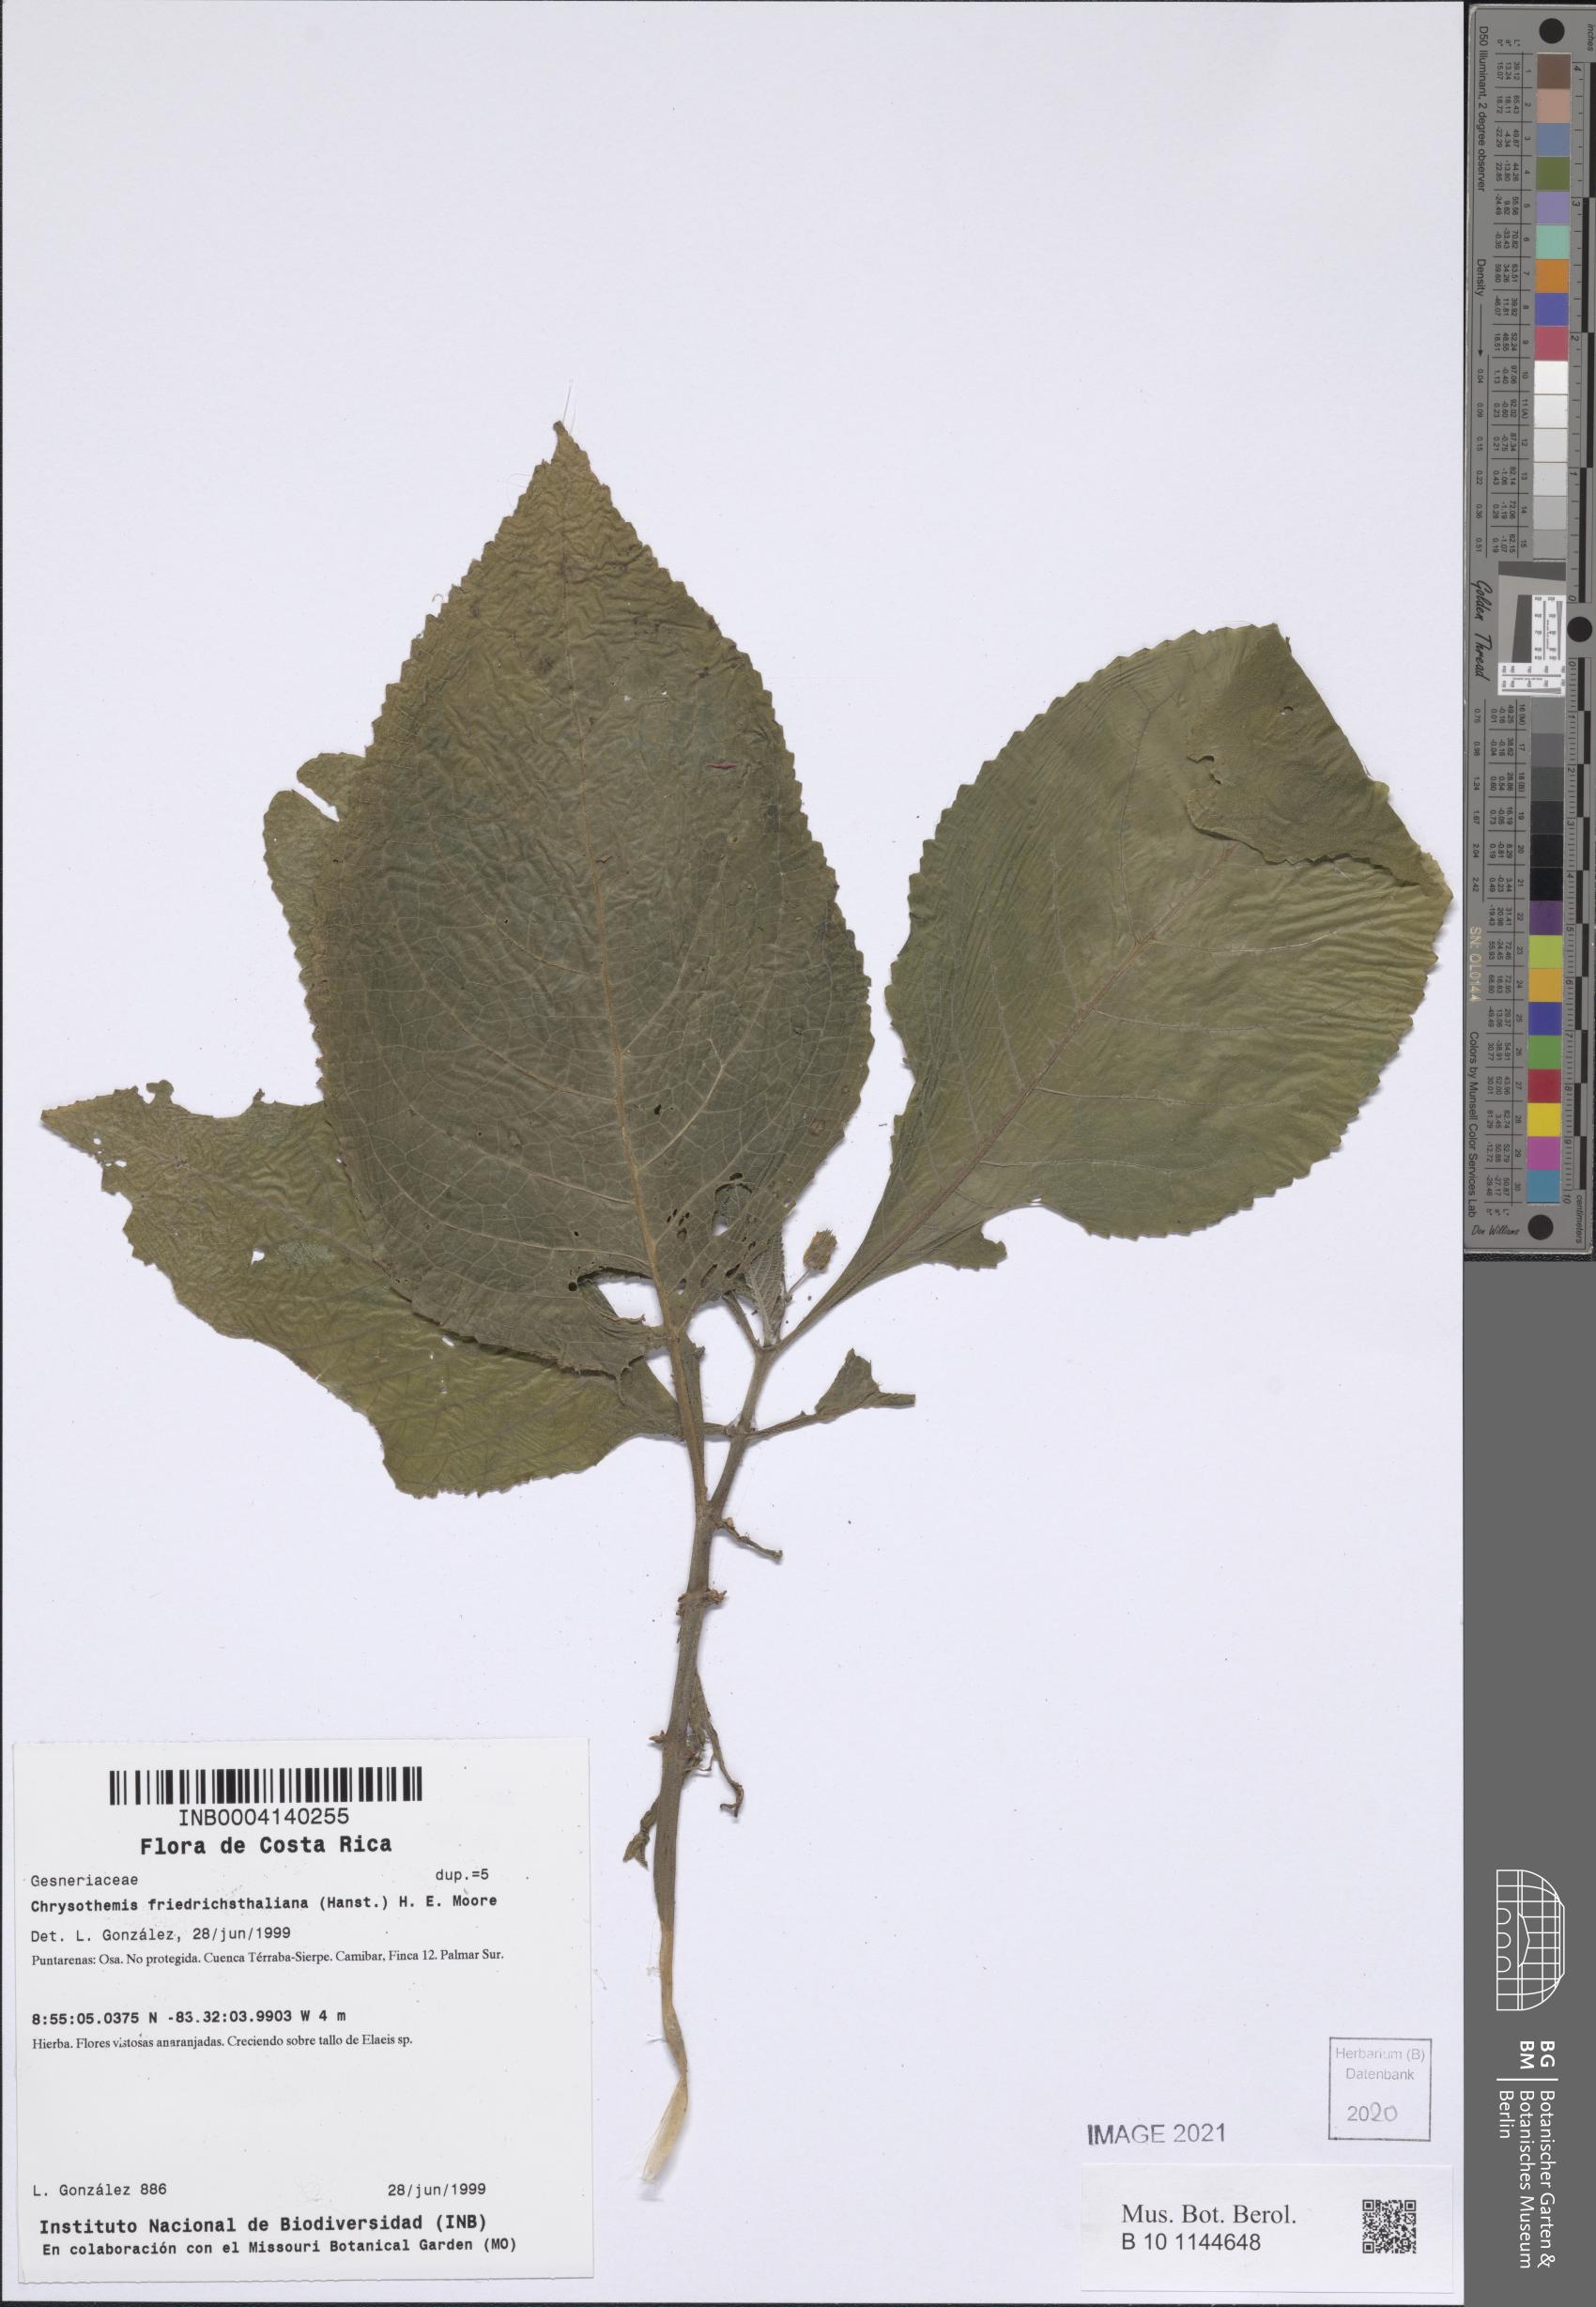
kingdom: Plantae
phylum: Tracheophyta
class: Magnoliopsida
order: Lamiales
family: Gesneriaceae
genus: Chrysothemis
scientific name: Chrysothemis friedrichsthaliana
